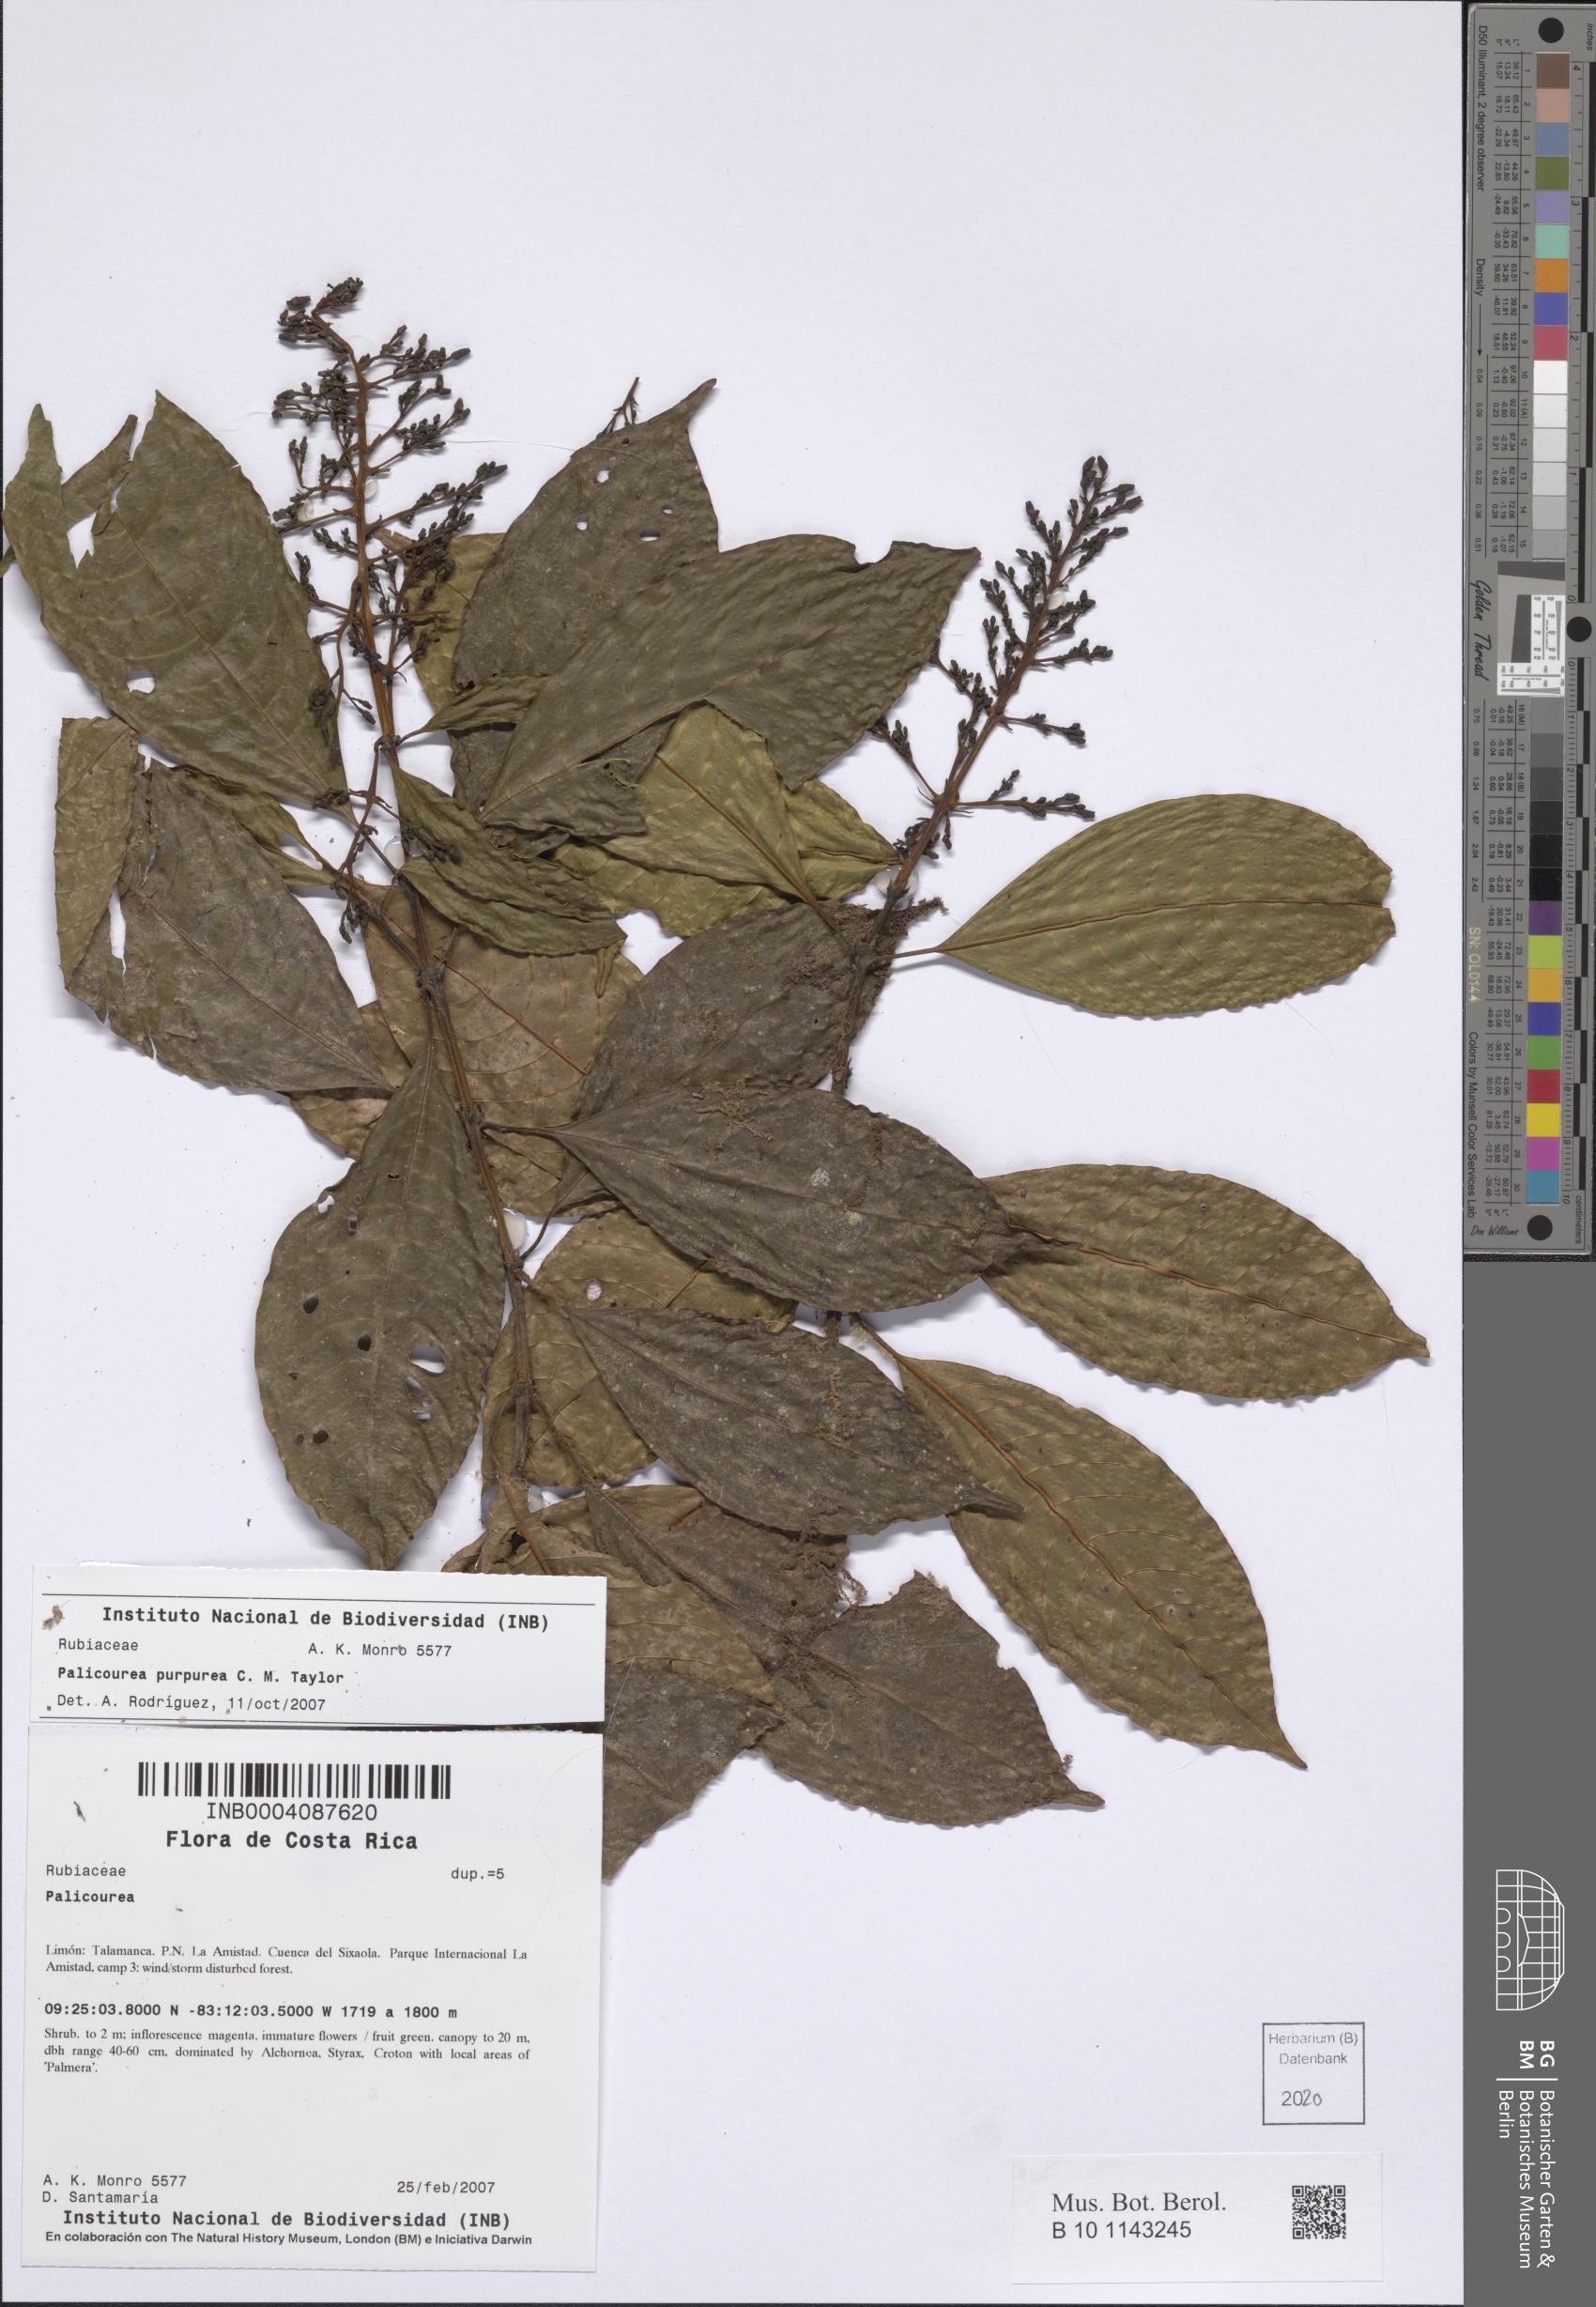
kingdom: Plantae
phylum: Tracheophyta
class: Magnoliopsida
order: Gentianales
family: Rubiaceae
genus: Palicourea
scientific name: Palicourea purpurea
